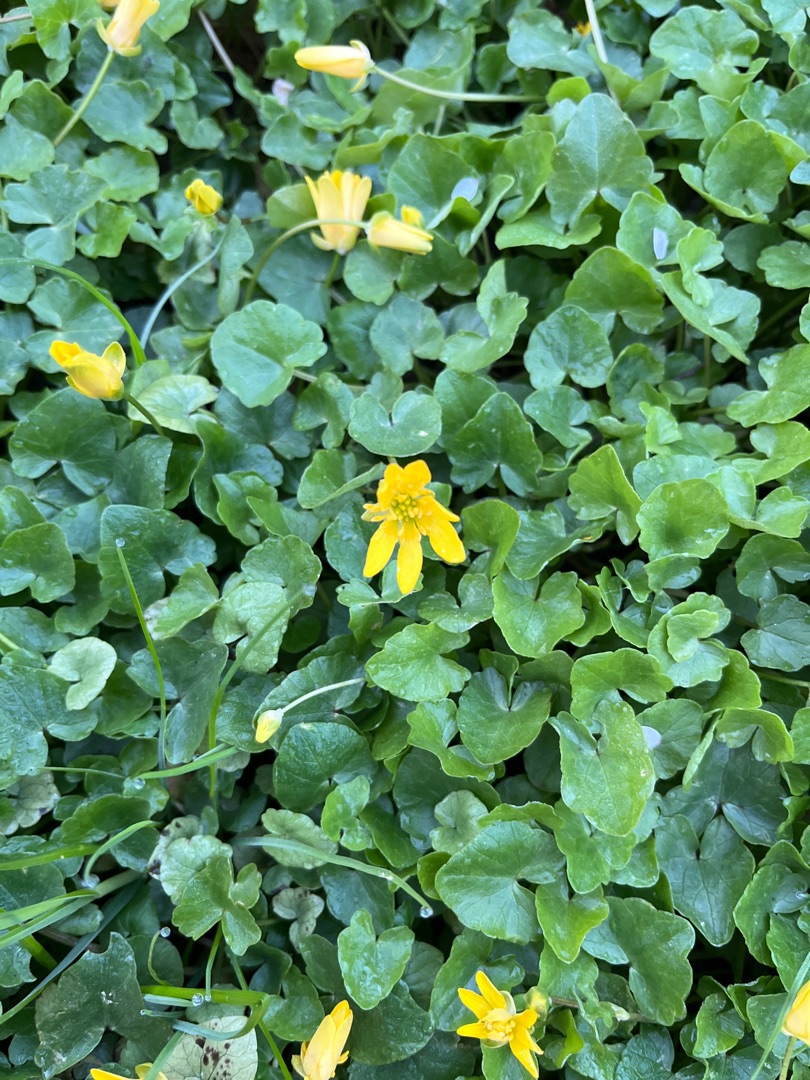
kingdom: Plantae
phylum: Tracheophyta
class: Magnoliopsida
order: Ranunculales
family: Ranunculaceae
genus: Ficaria
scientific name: Ficaria verna
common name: Vorterod
